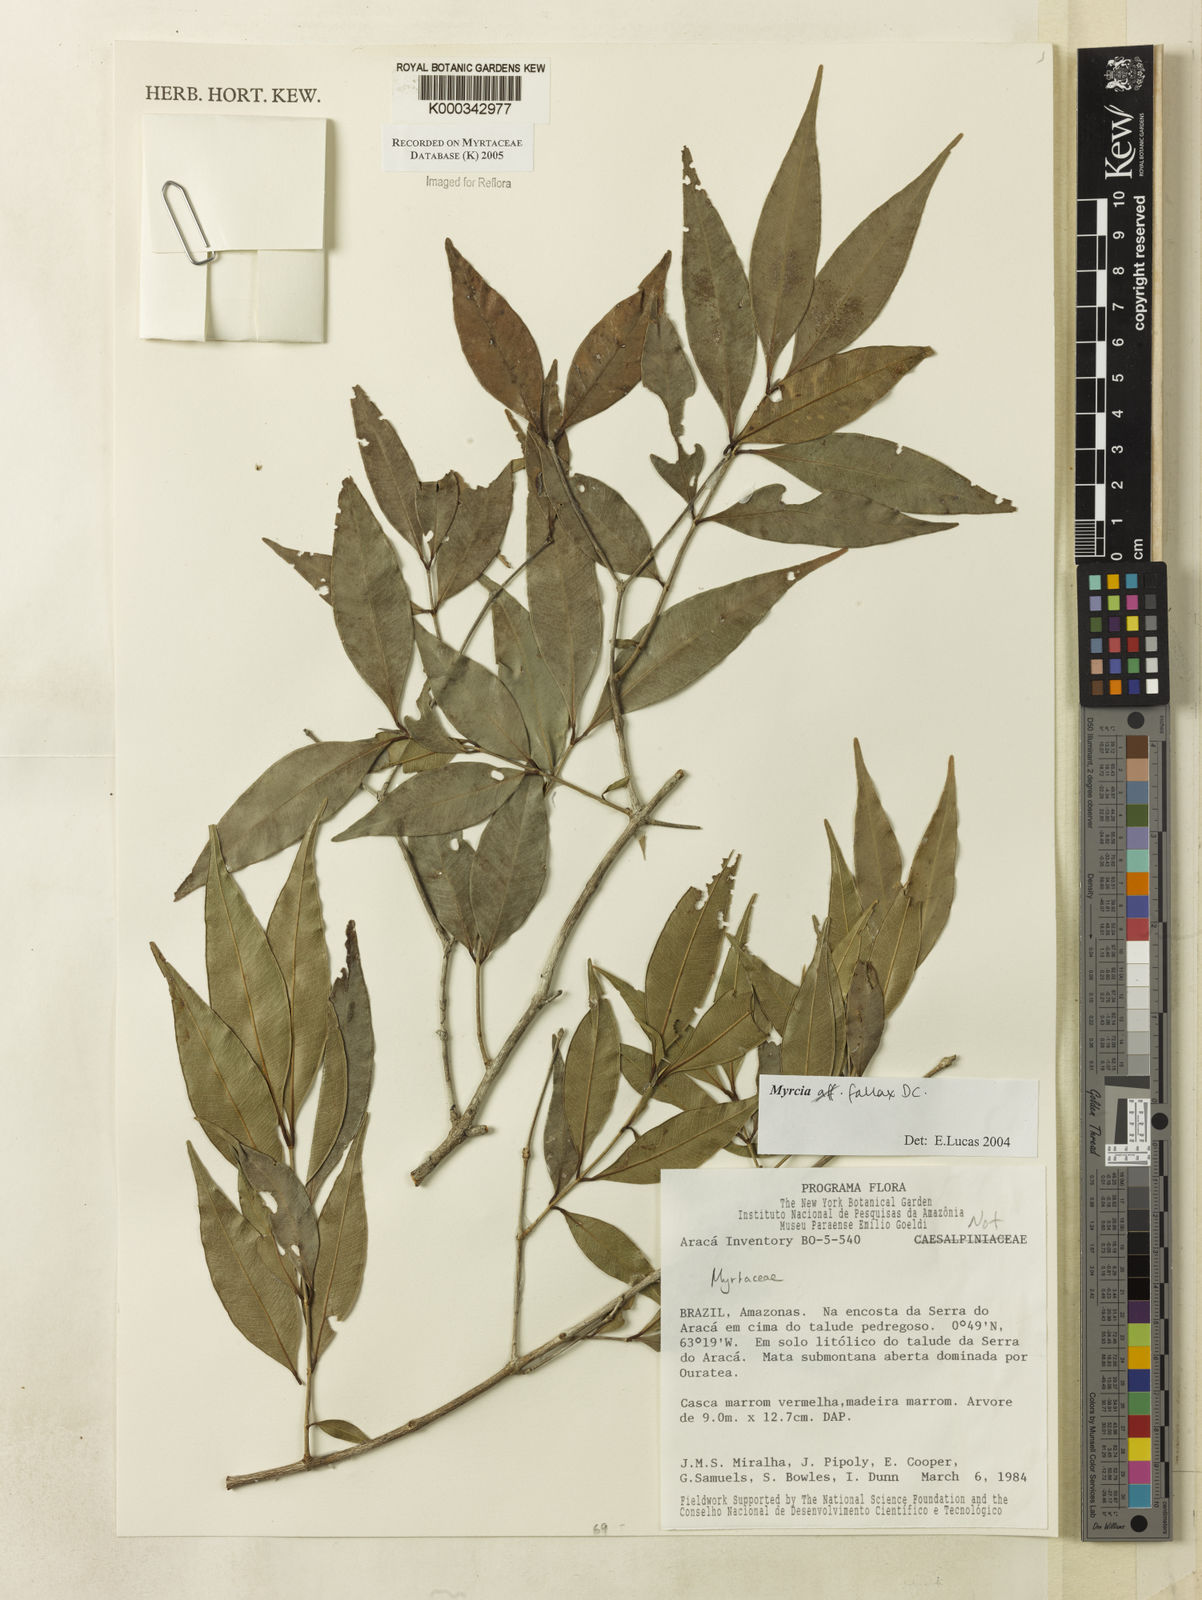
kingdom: Plantae
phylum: Tracheophyta
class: Magnoliopsida
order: Myrtales
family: Myrtaceae
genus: Myrcia
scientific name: Myrcia splendens
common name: Surinam cherry
